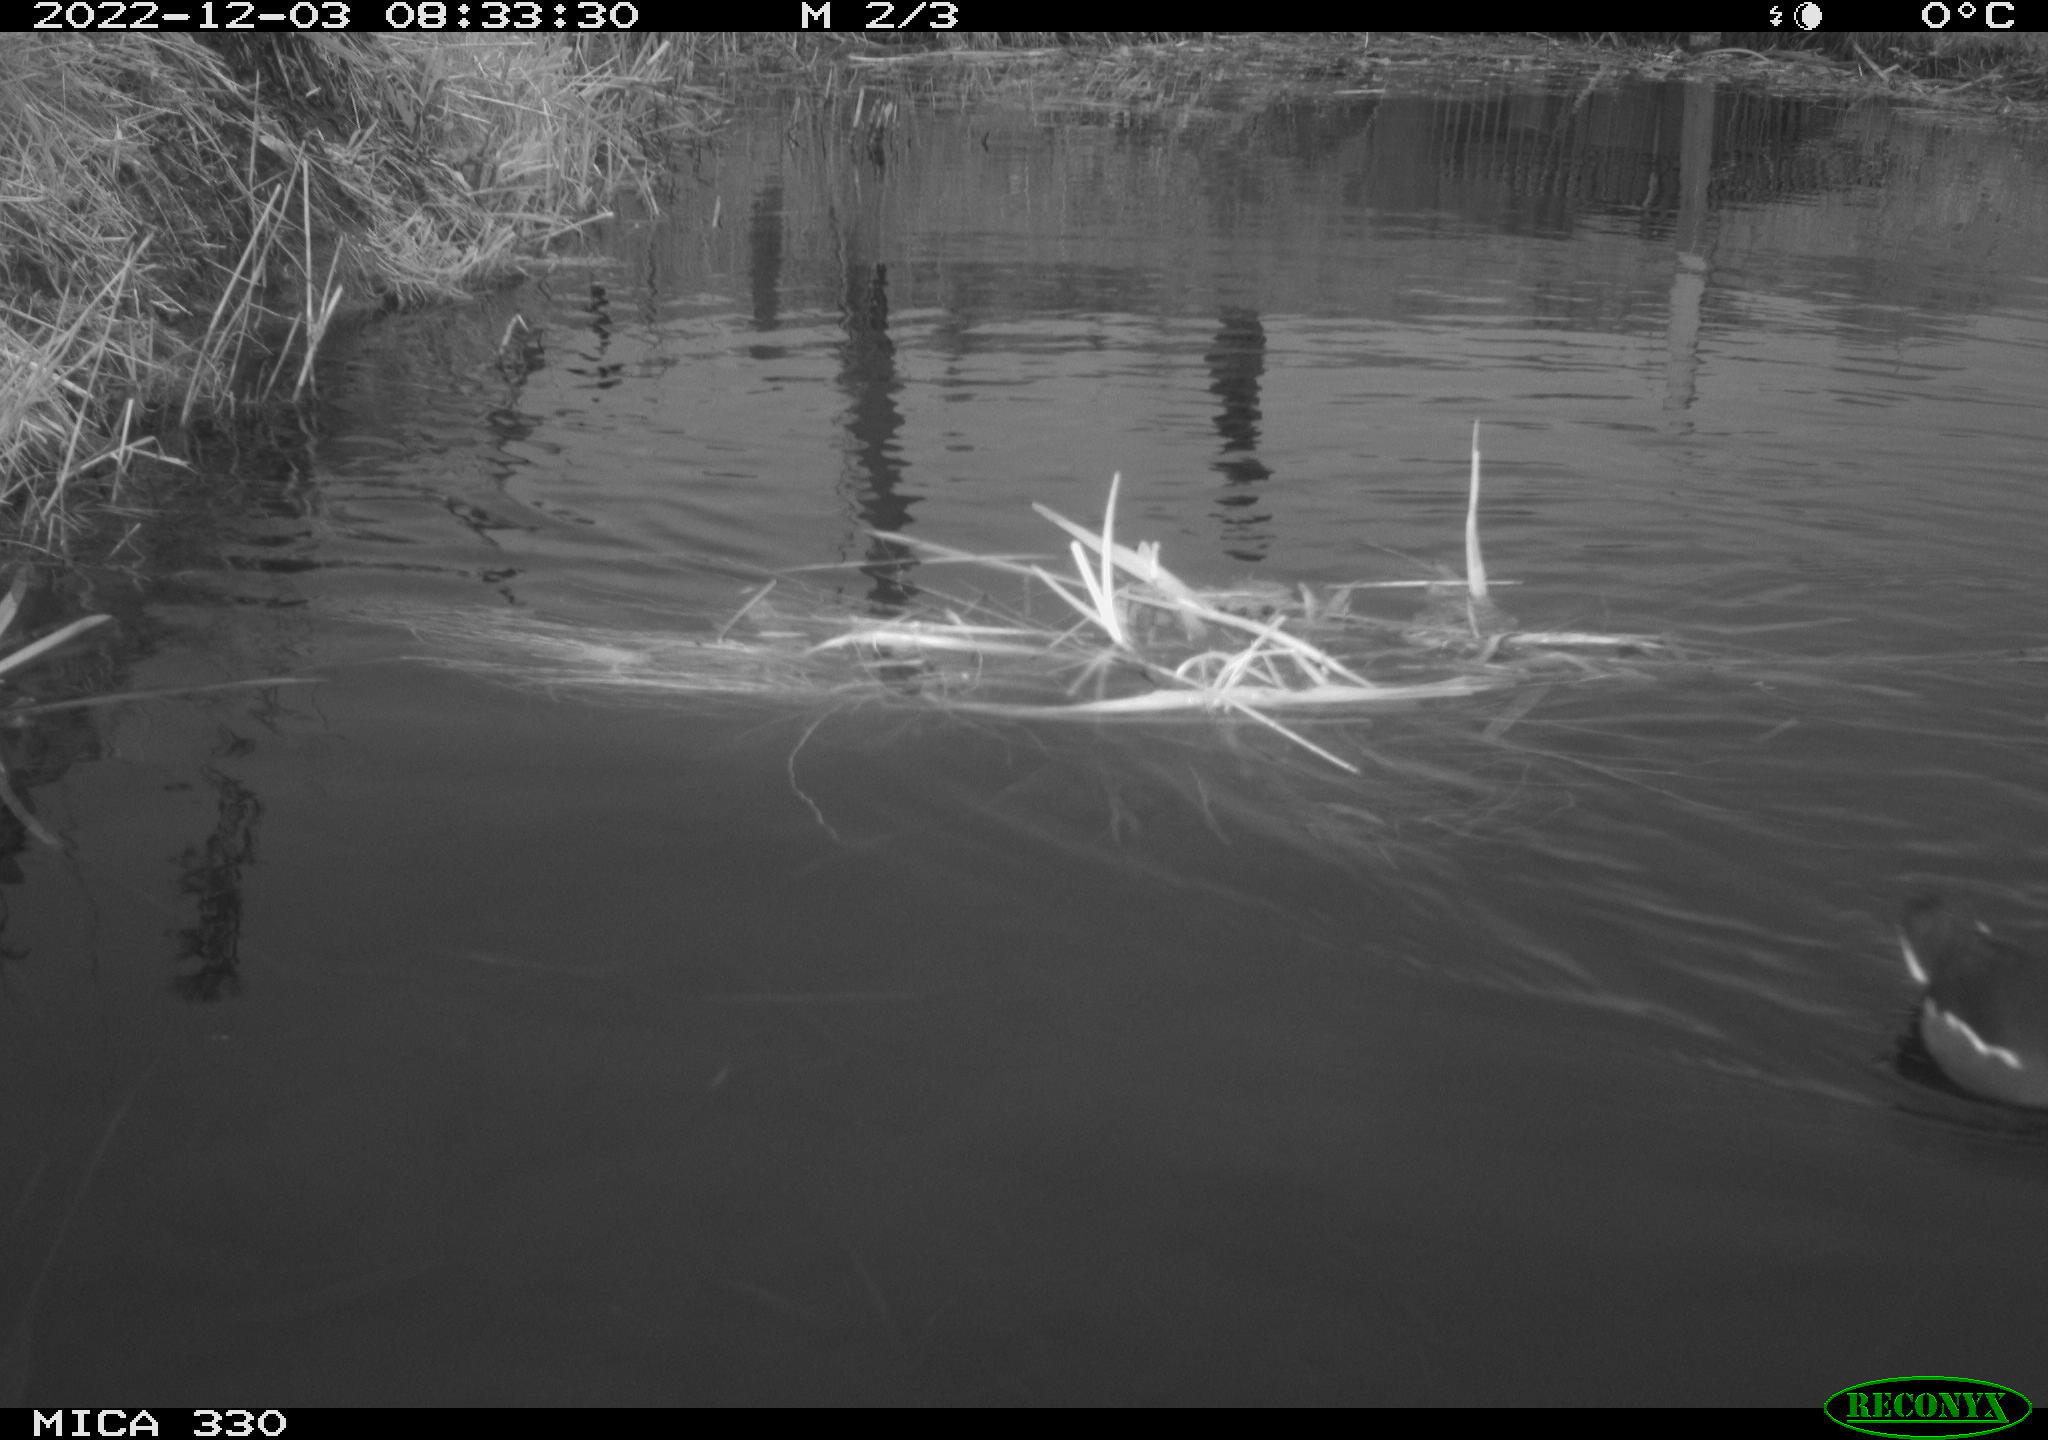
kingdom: Animalia
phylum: Chordata
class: Aves
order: Gruiformes
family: Rallidae
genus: Gallinula
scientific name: Gallinula chloropus
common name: Common moorhen
